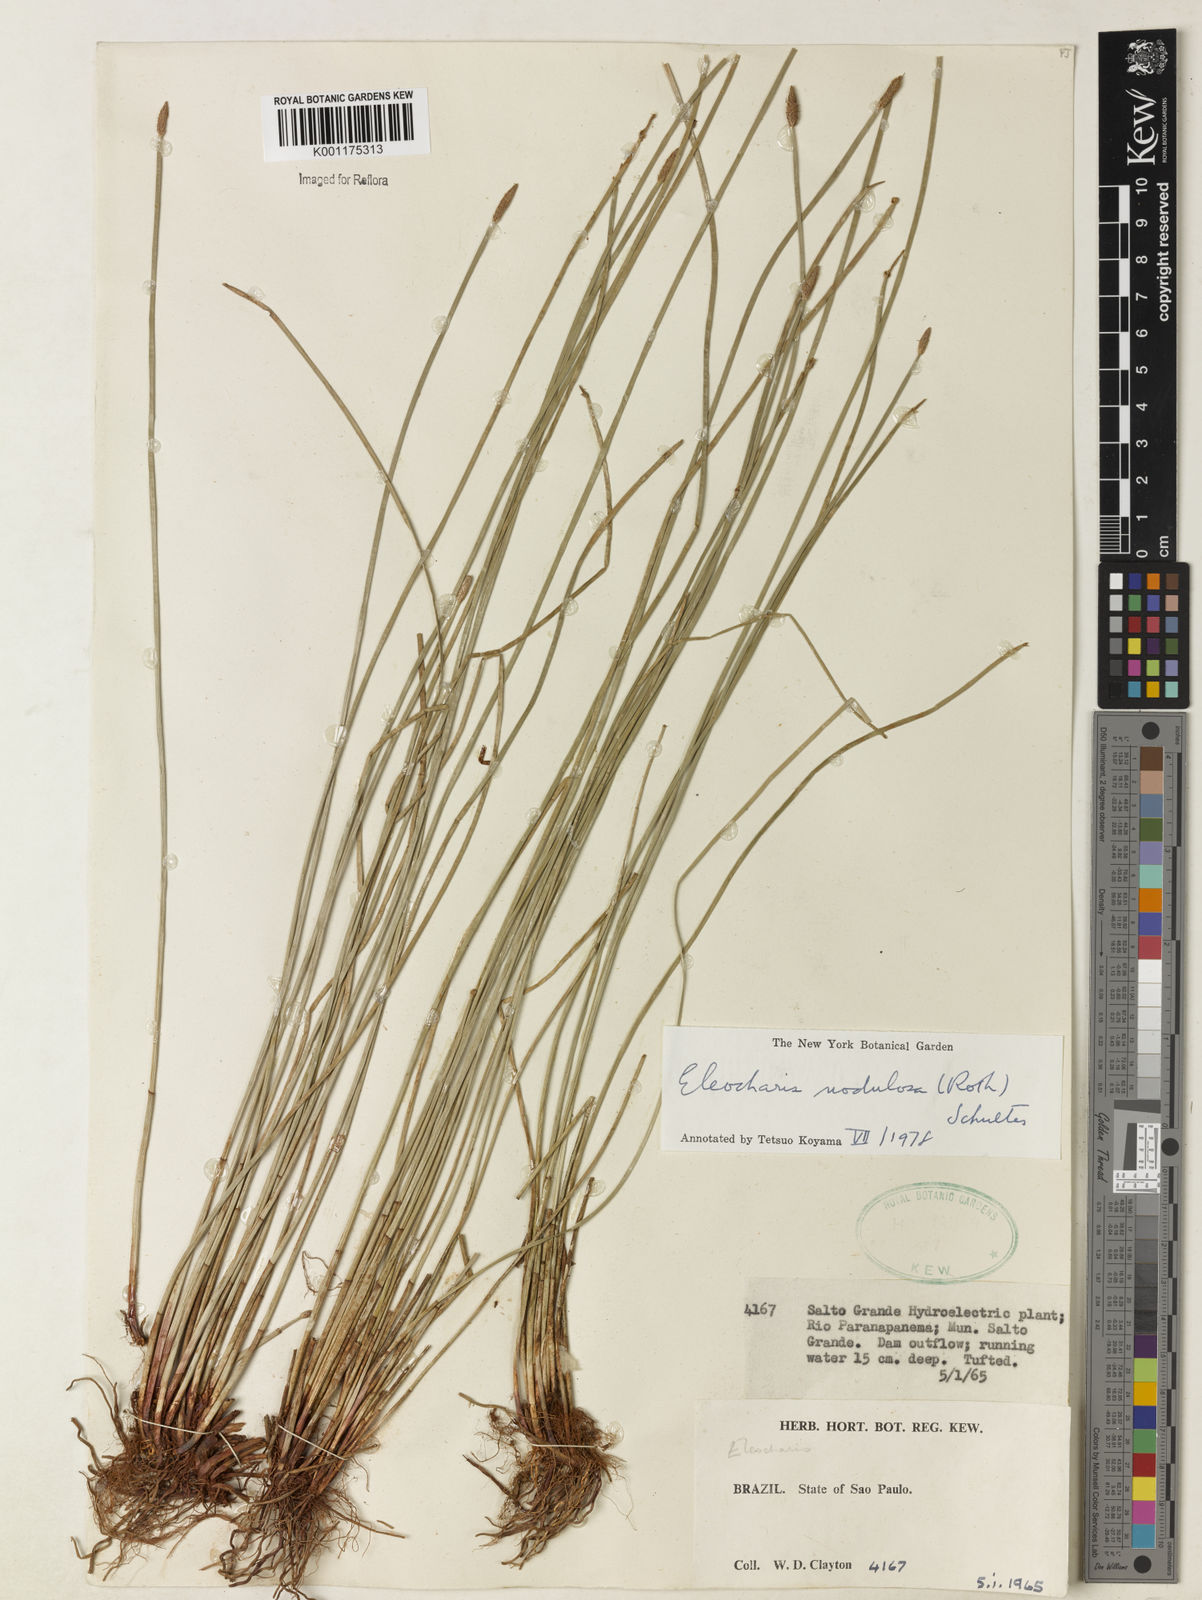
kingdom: Plantae
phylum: Tracheophyta
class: Liliopsida
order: Poales
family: Cyperaceae
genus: Eleocharis
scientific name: Eleocharis montana
